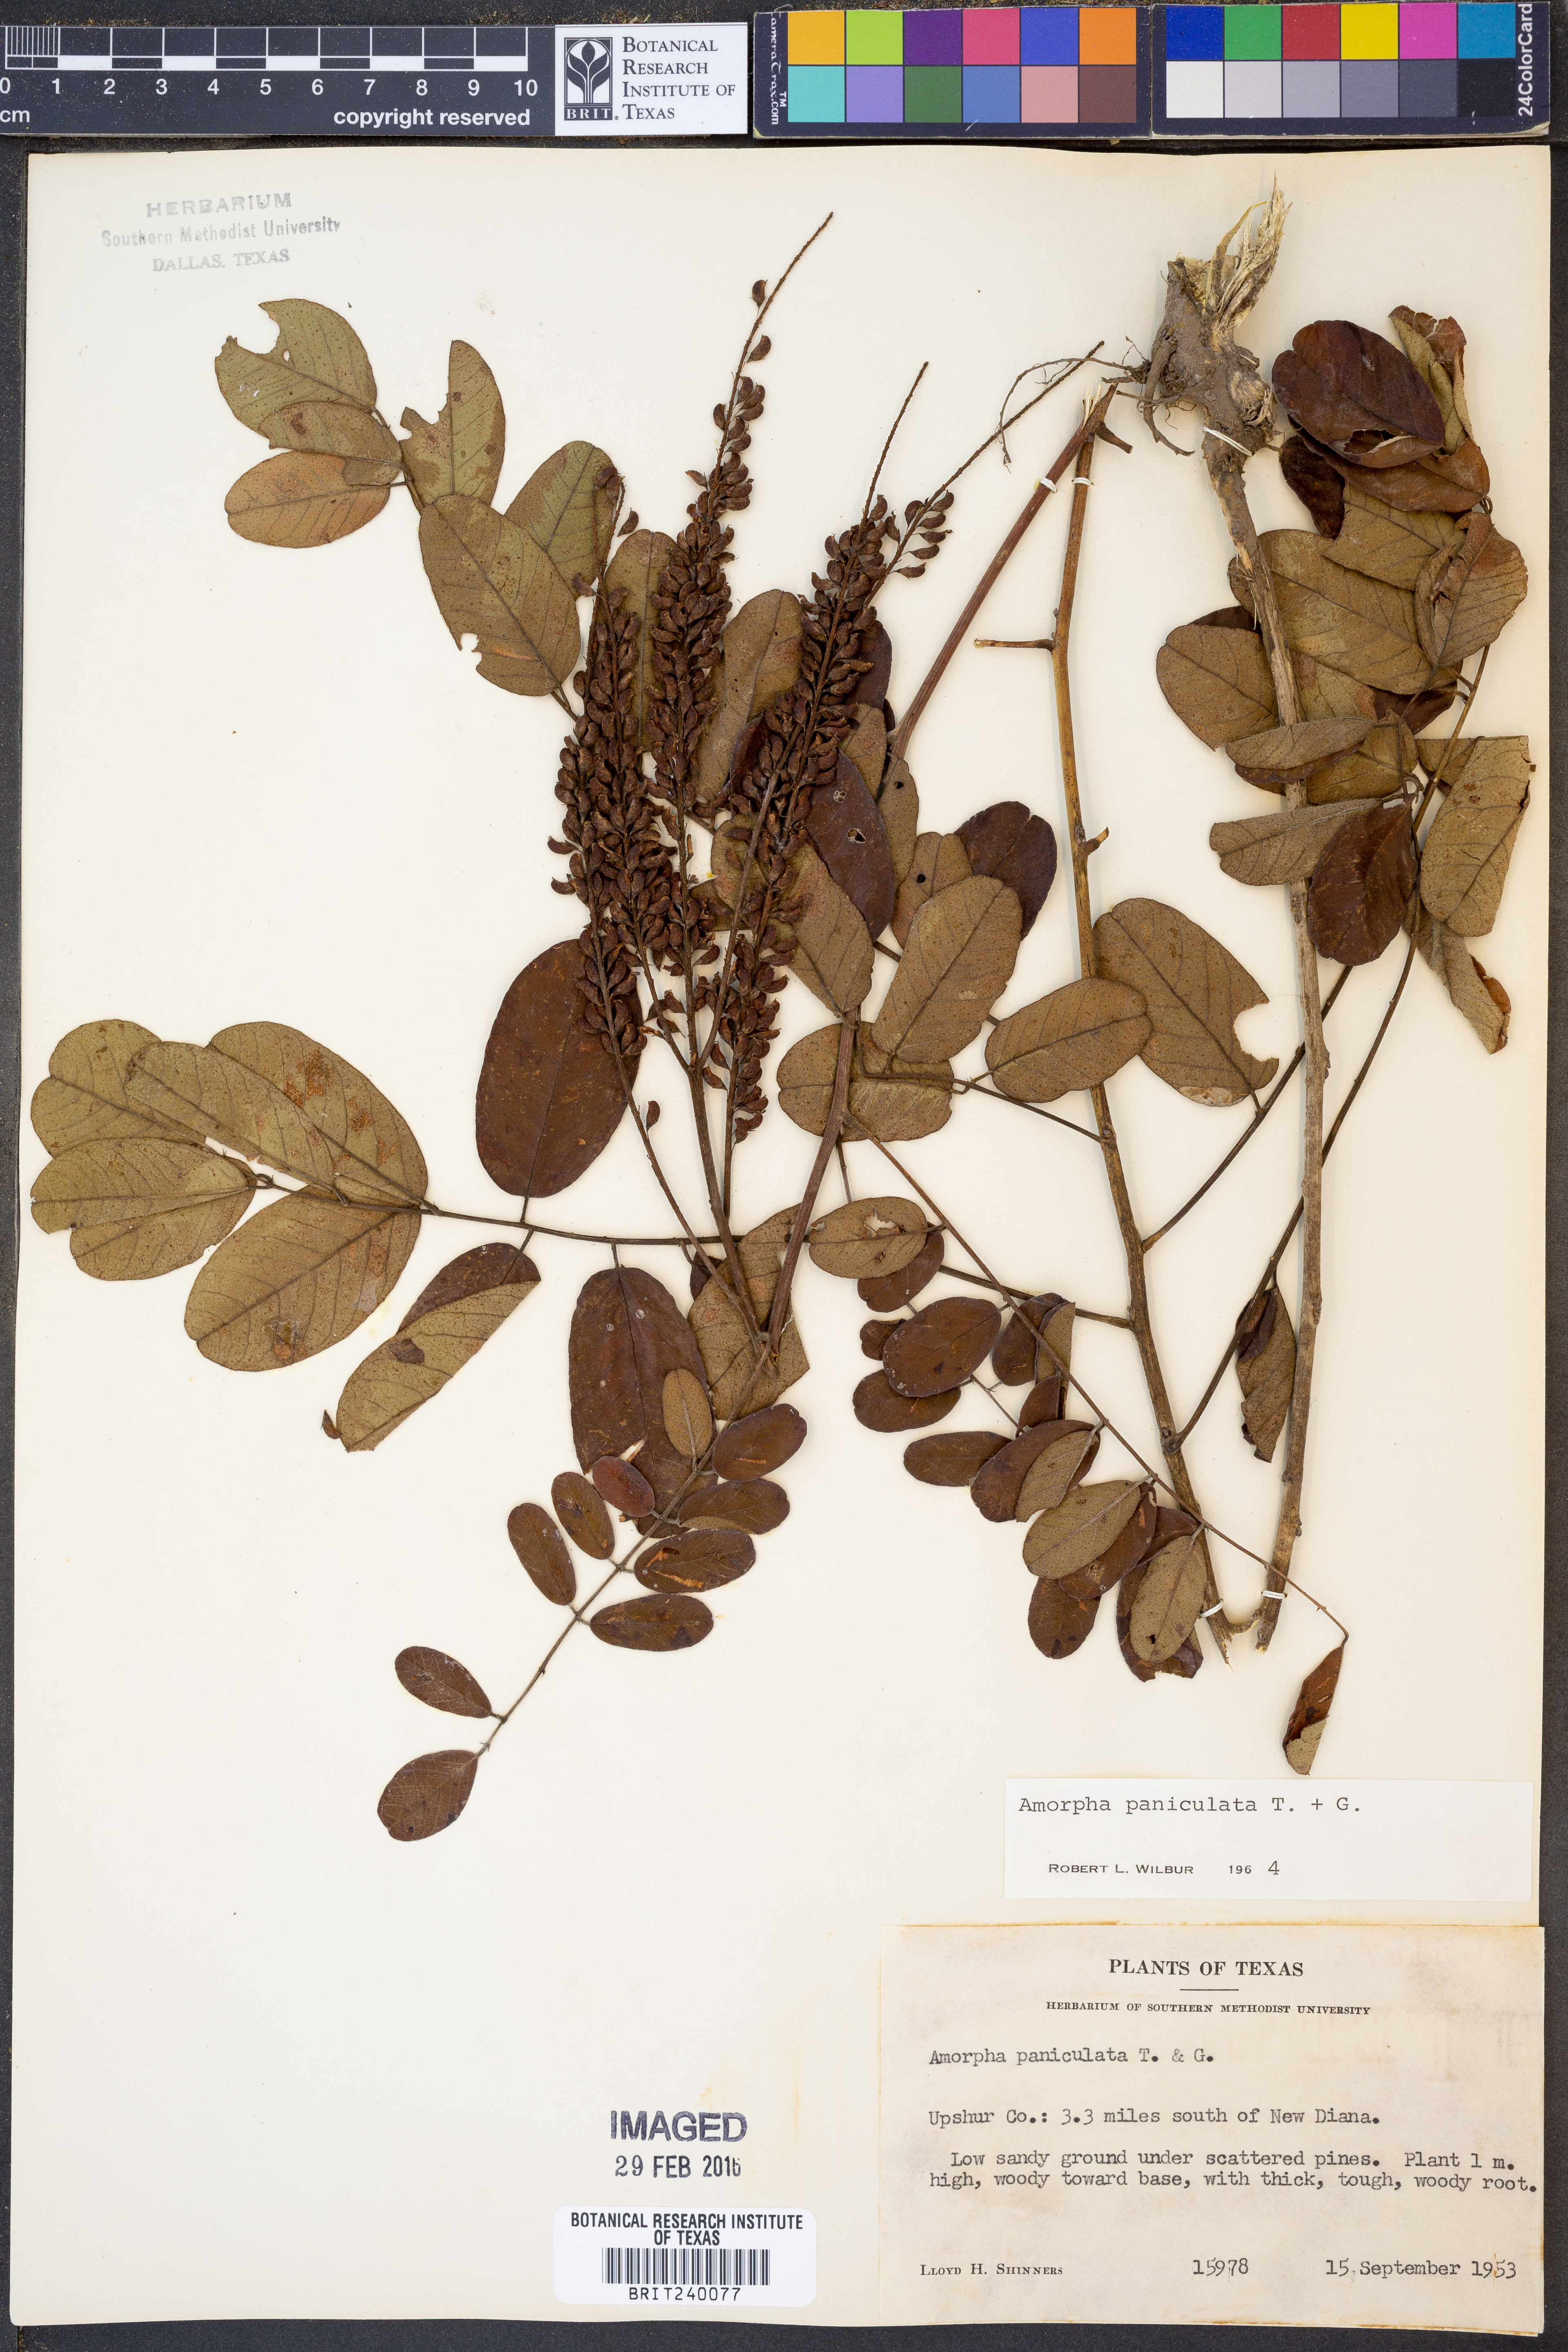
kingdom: Plantae
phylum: Tracheophyta
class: Magnoliopsida
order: Fabales
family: Fabaceae
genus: Amorpha
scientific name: Amorpha paniculata
